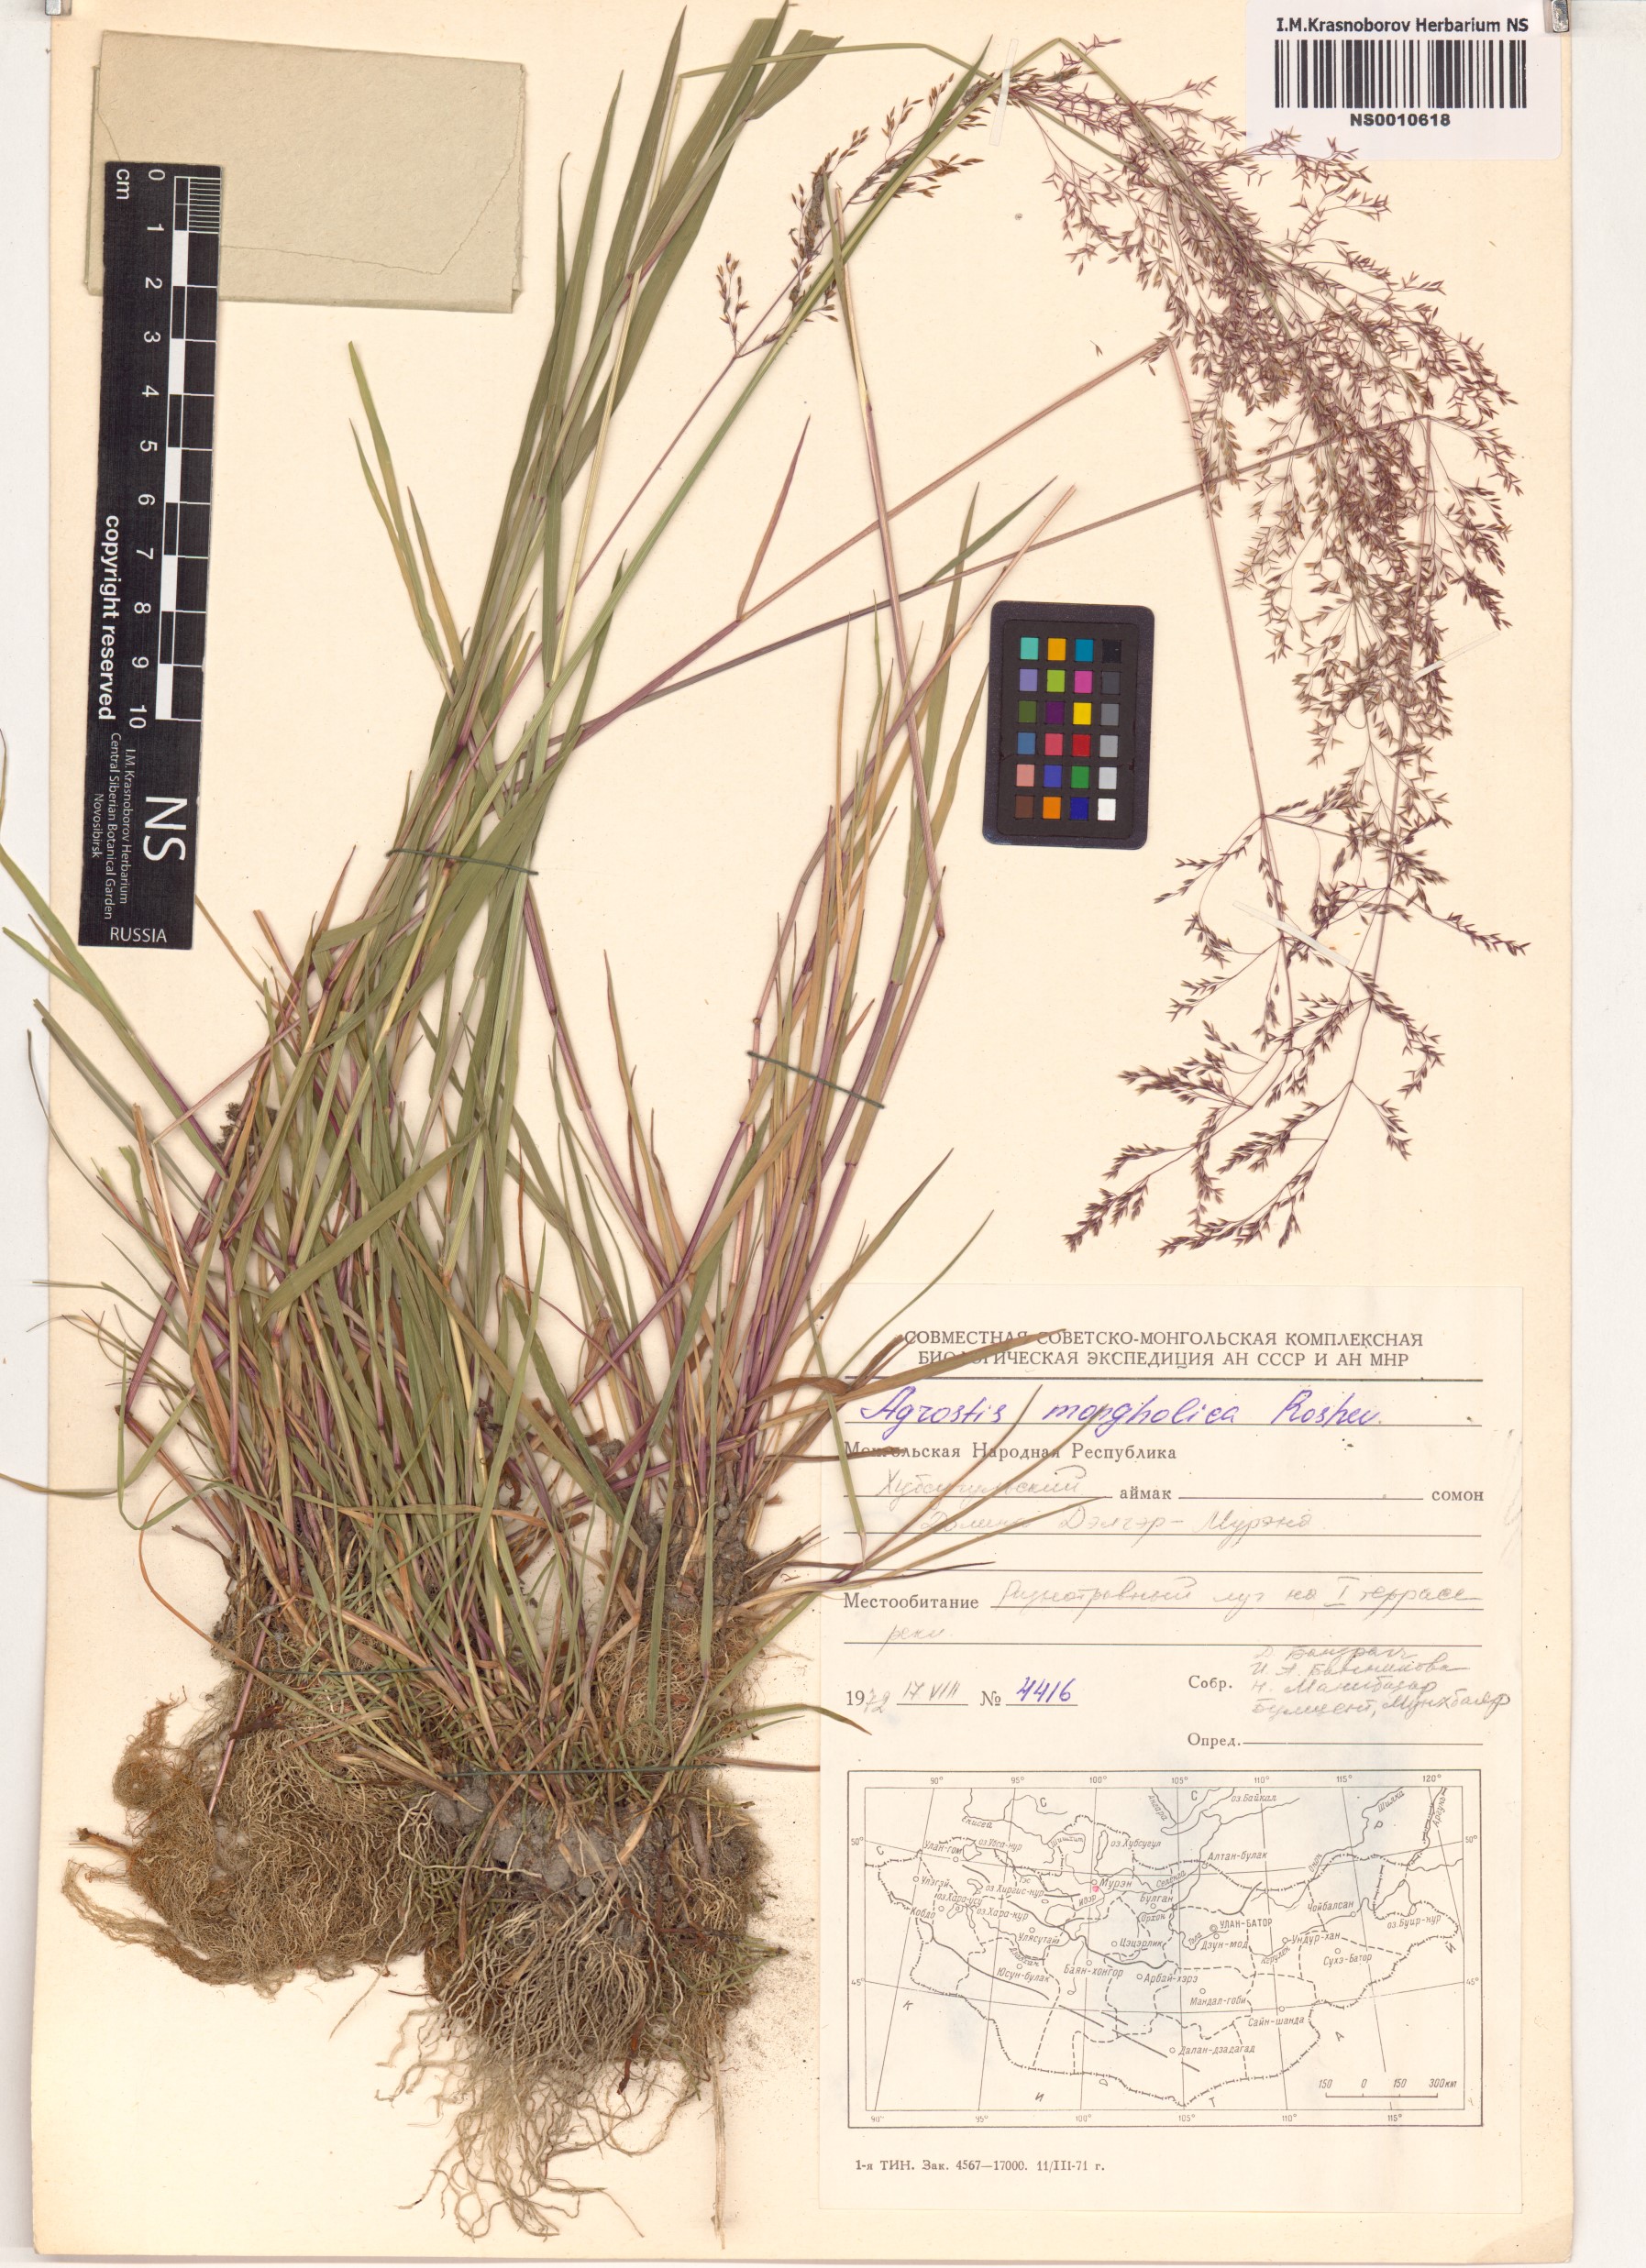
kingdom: Plantae
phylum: Tracheophyta
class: Liliopsida
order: Poales
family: Poaceae
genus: Agrostis
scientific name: Agrostis divaricatissima
